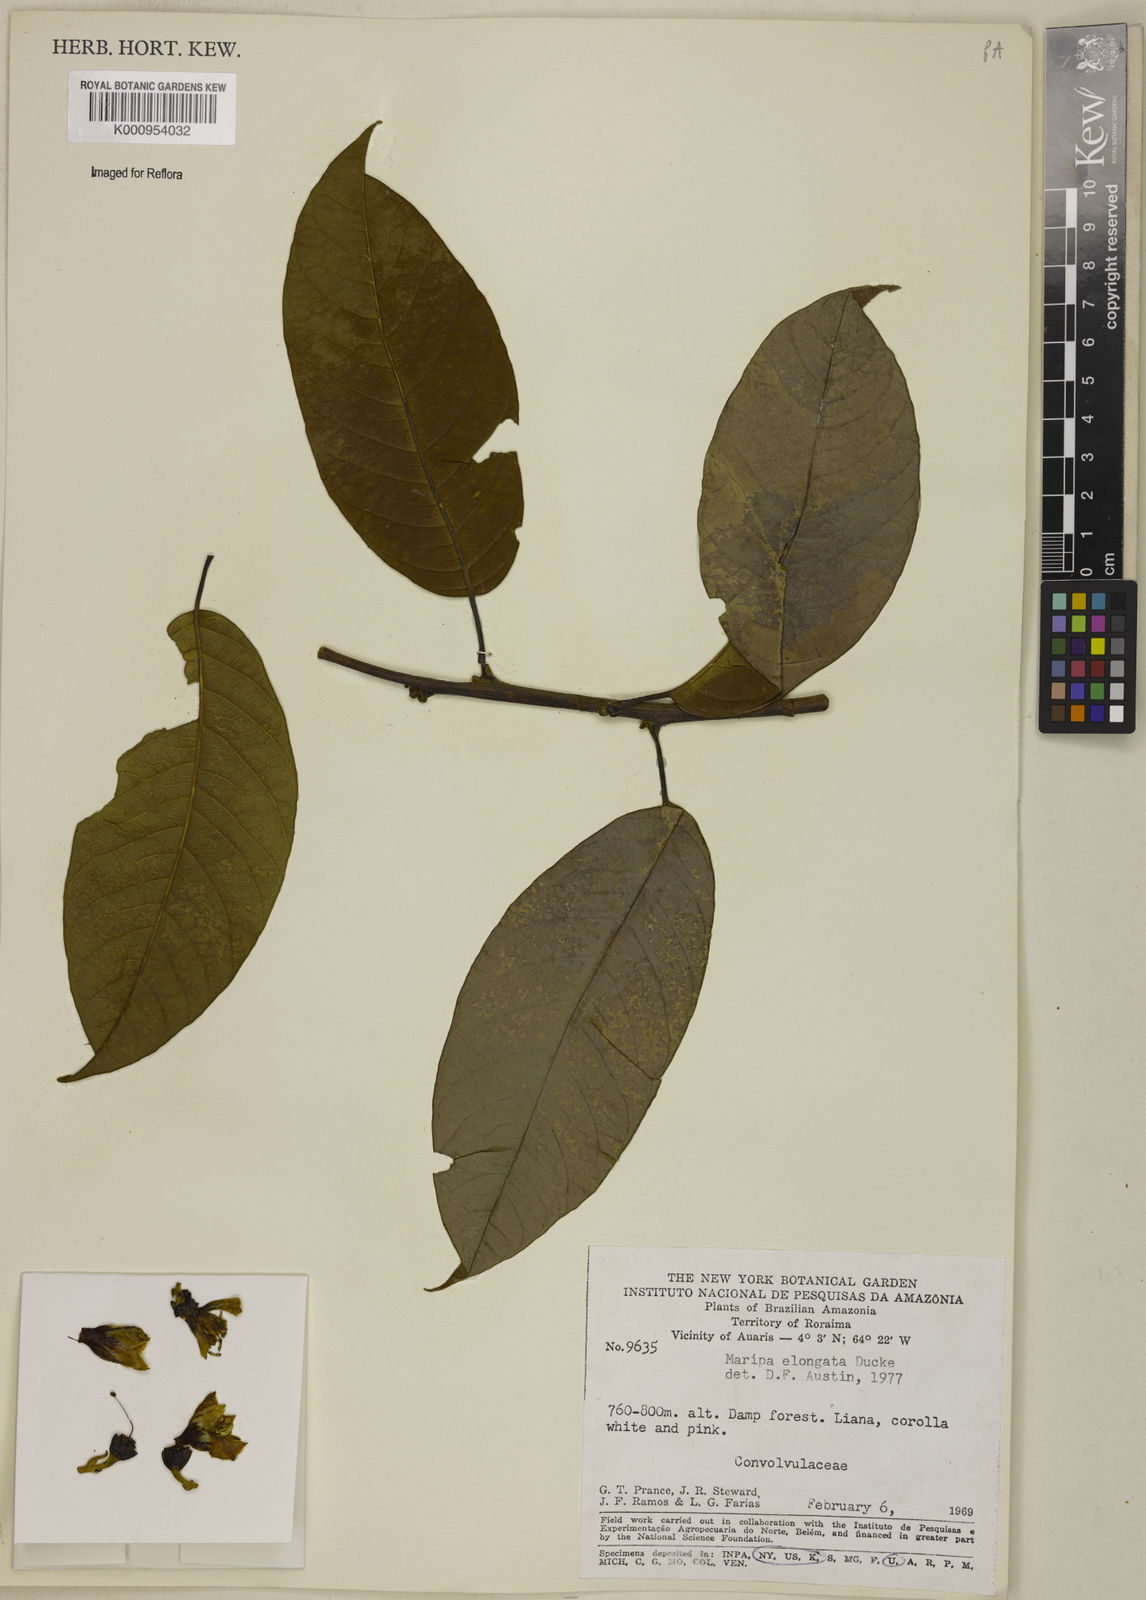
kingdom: Plantae
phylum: Tracheophyta
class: Magnoliopsida
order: Solanales
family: Convolvulaceae
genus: Maripa
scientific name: Maripa elongata
